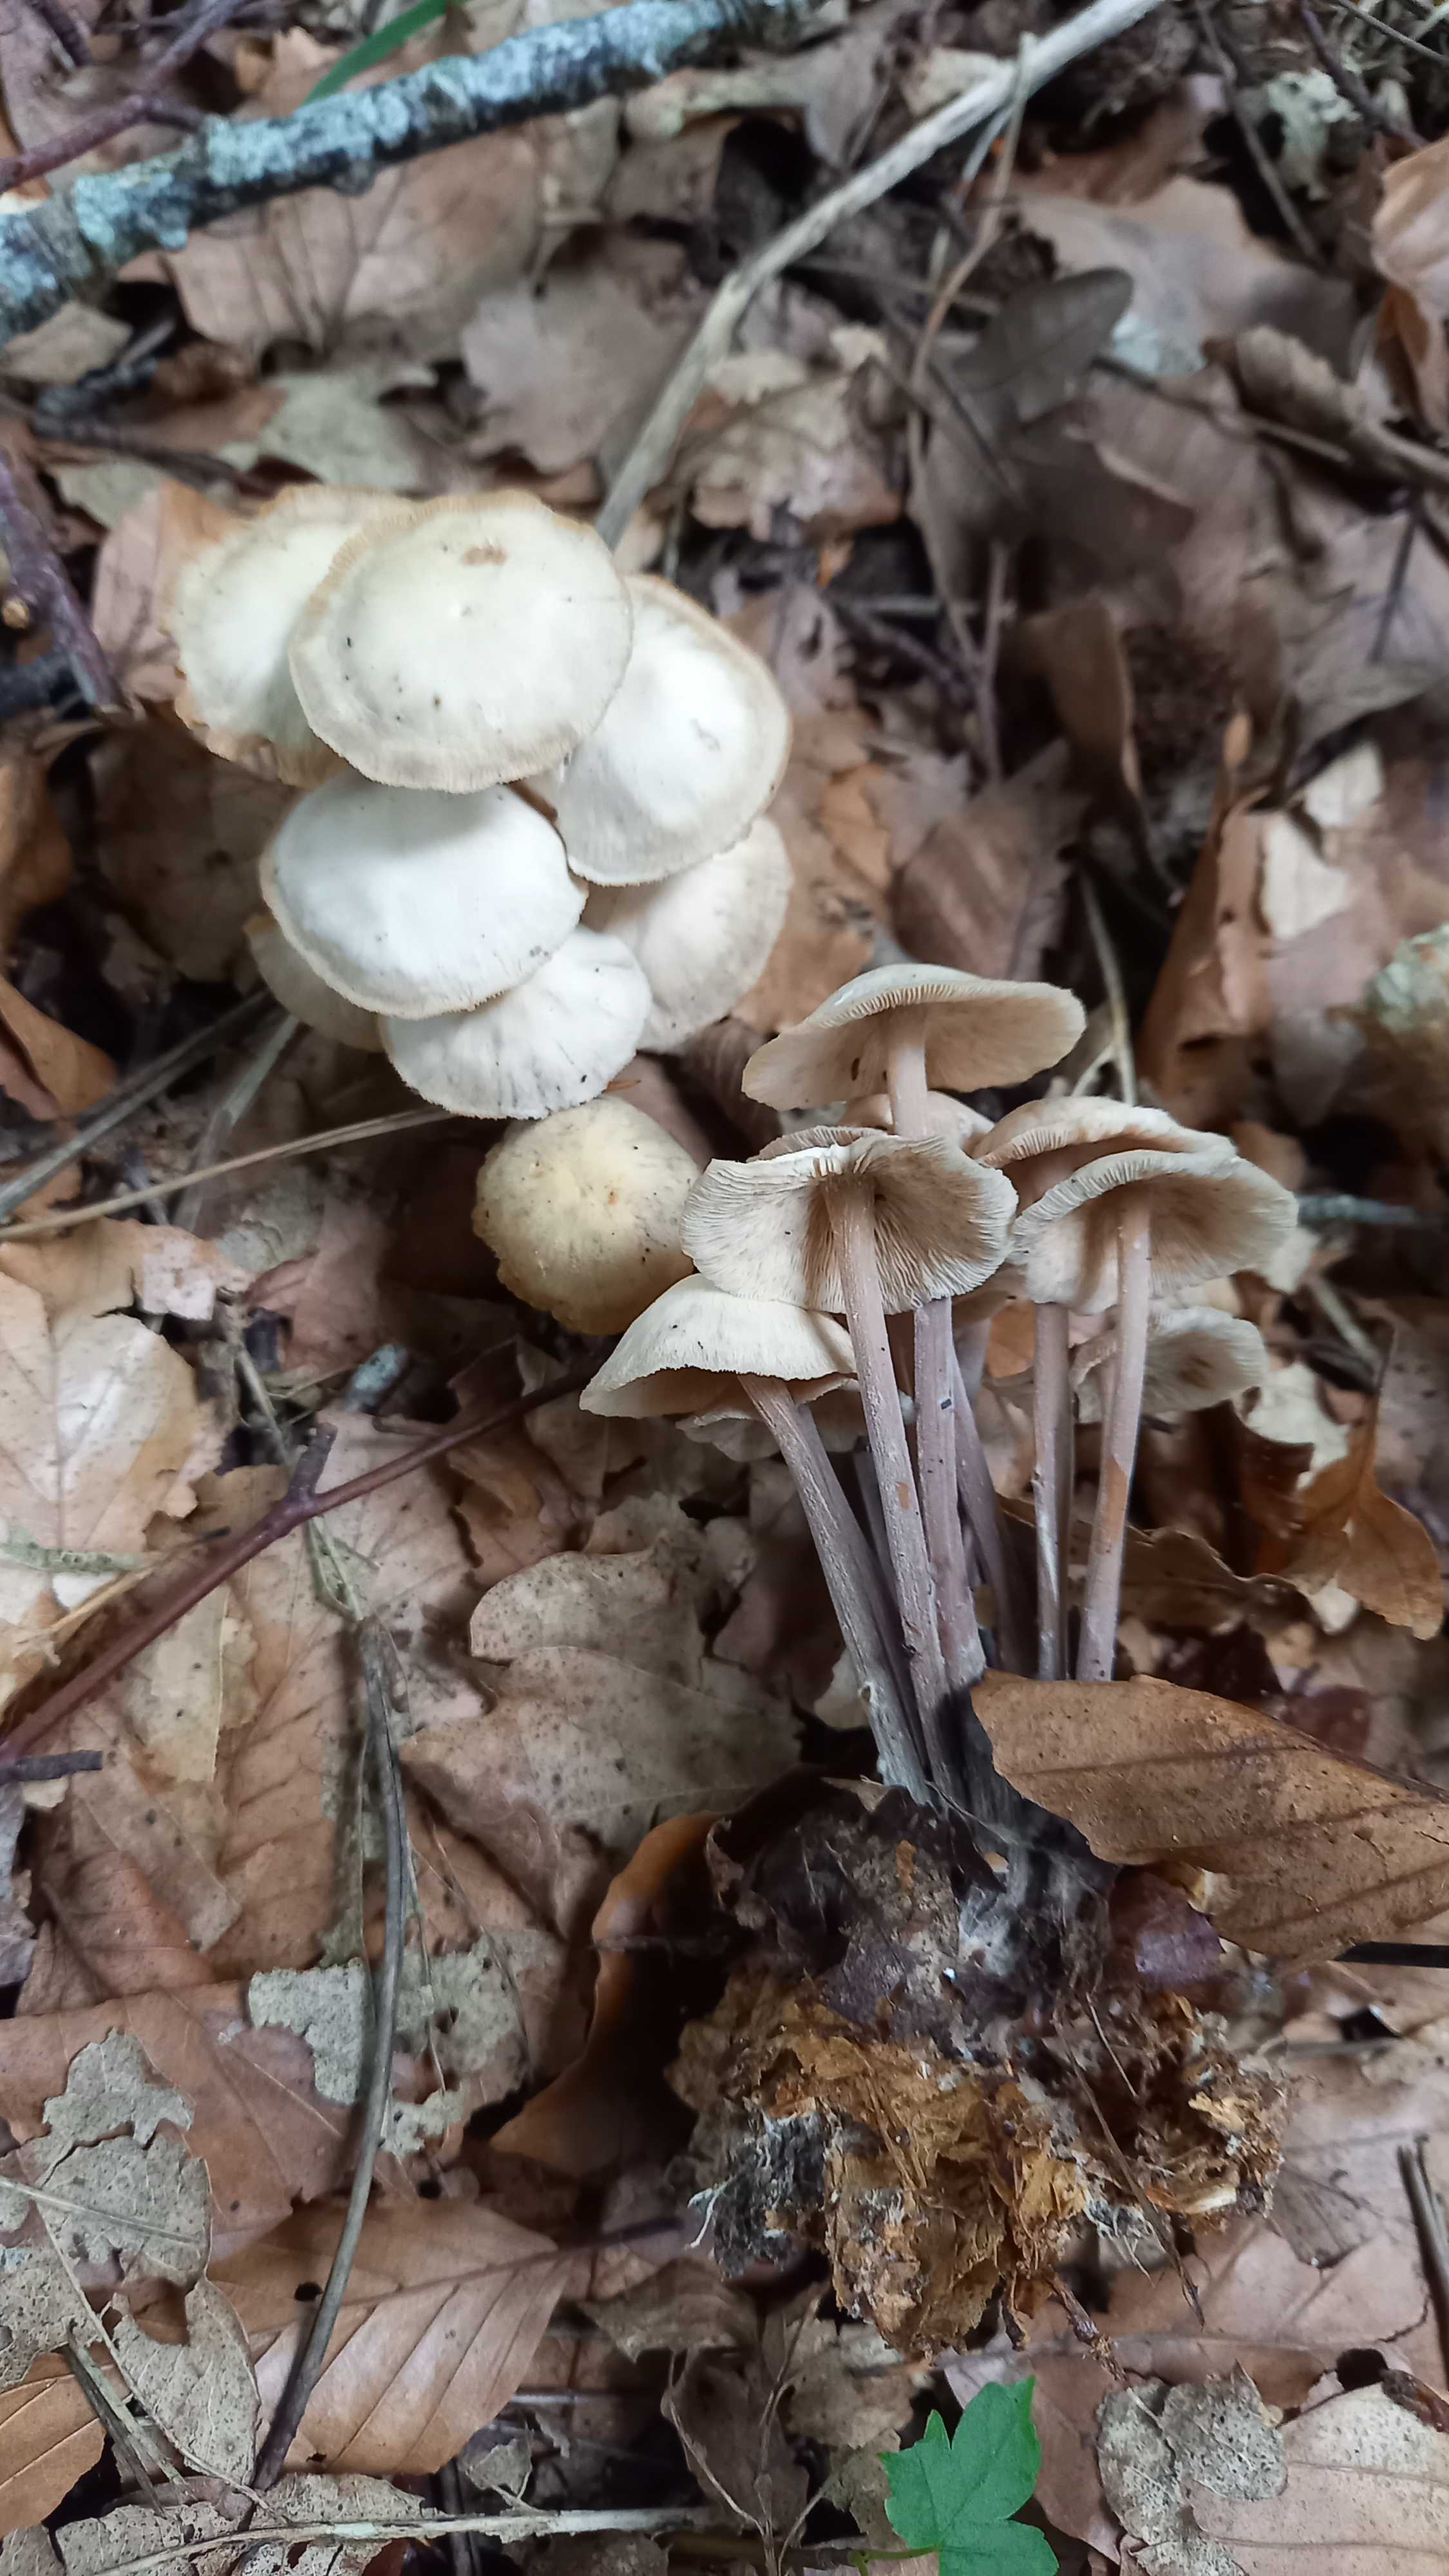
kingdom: Fungi
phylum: Basidiomycota
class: Agaricomycetes
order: Agaricales
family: Omphalotaceae
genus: Collybiopsis
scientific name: Collybiopsis confluens
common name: knippe-fladhat
